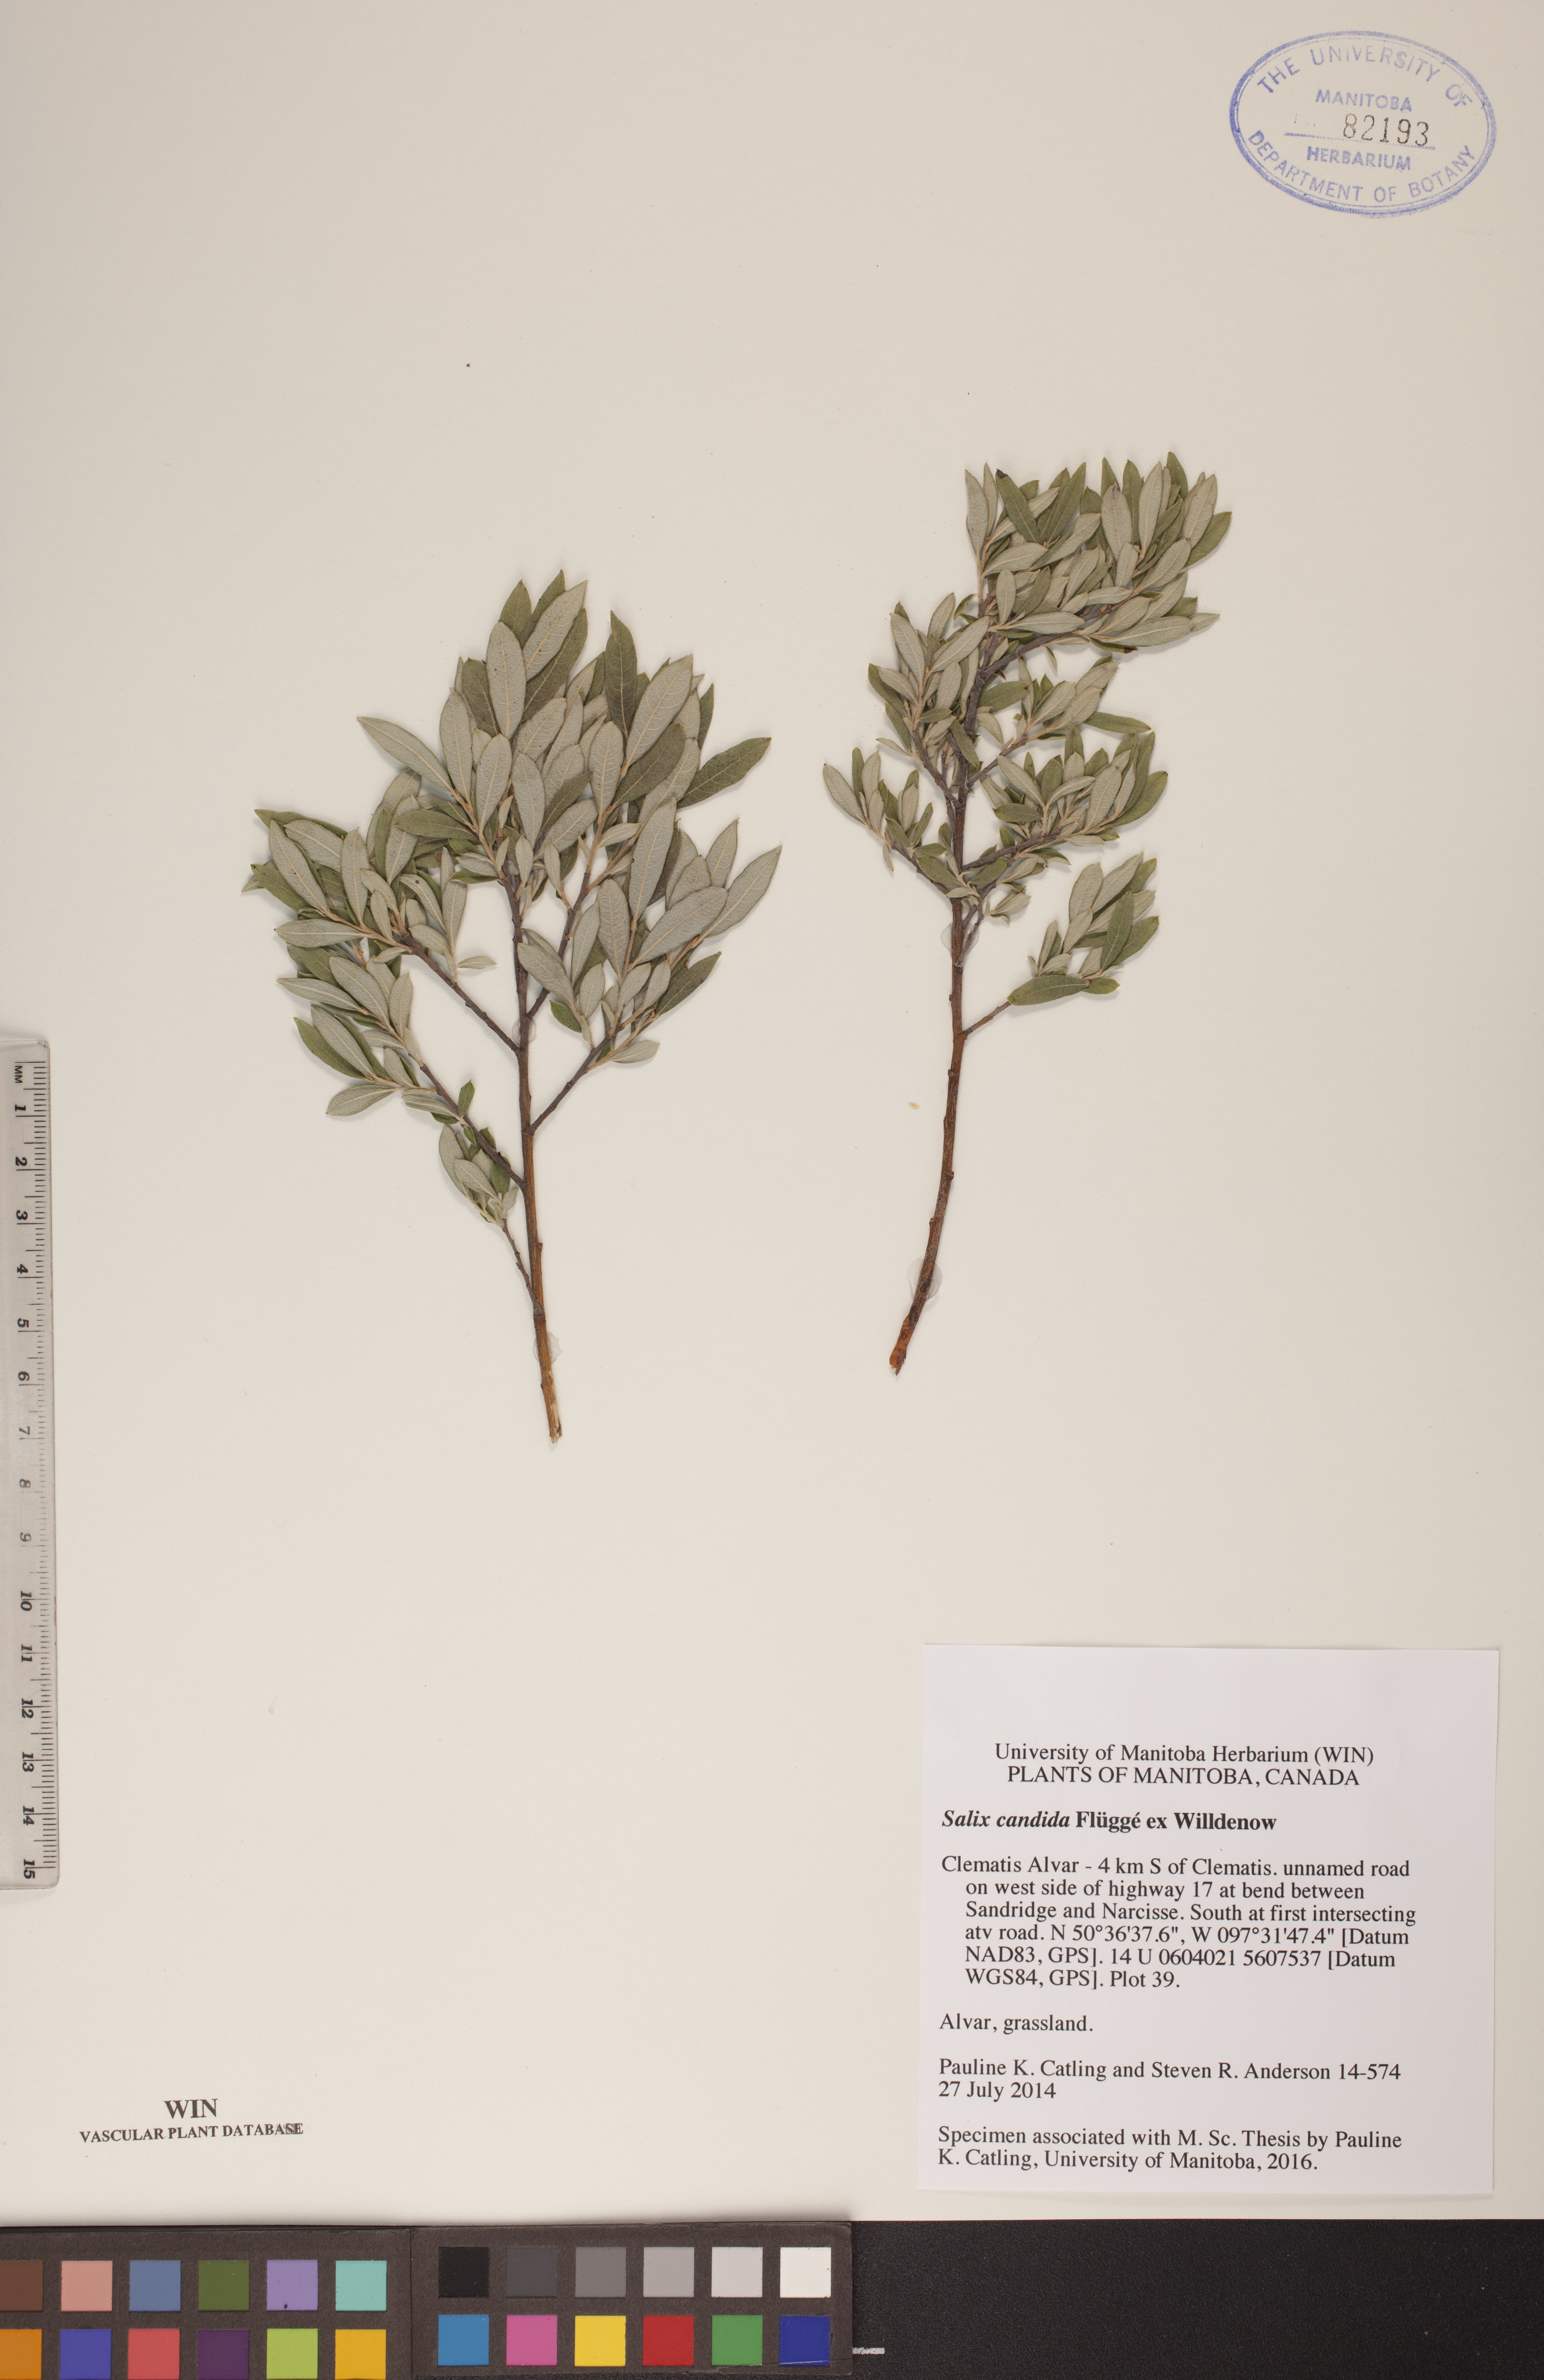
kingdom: Plantae
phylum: Tracheophyta
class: Magnoliopsida
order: Malpighiales
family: Salicaceae
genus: Salix
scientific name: Salix candida
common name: Hoary willow
